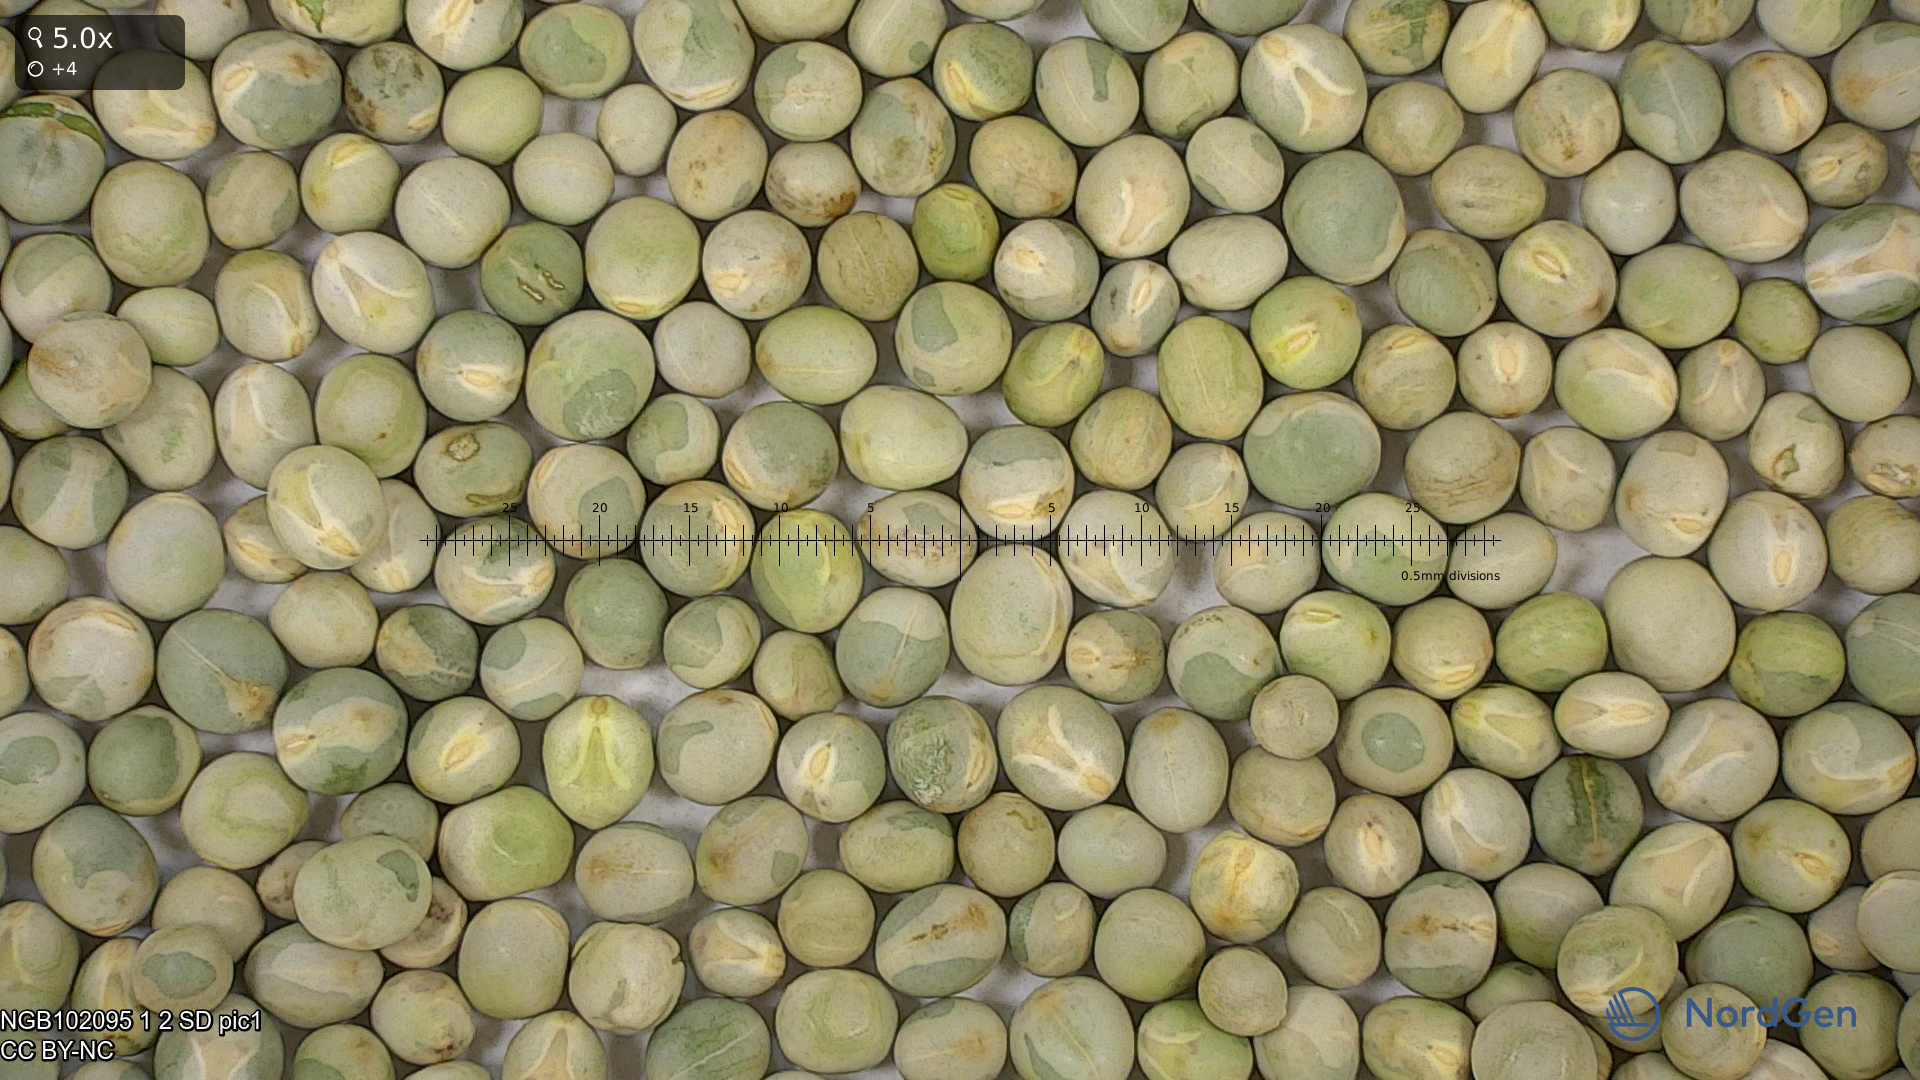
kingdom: Plantae
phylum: Tracheophyta
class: Magnoliopsida
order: Fabales
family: Fabaceae
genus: Lathyrus
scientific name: Lathyrus oleraceus
